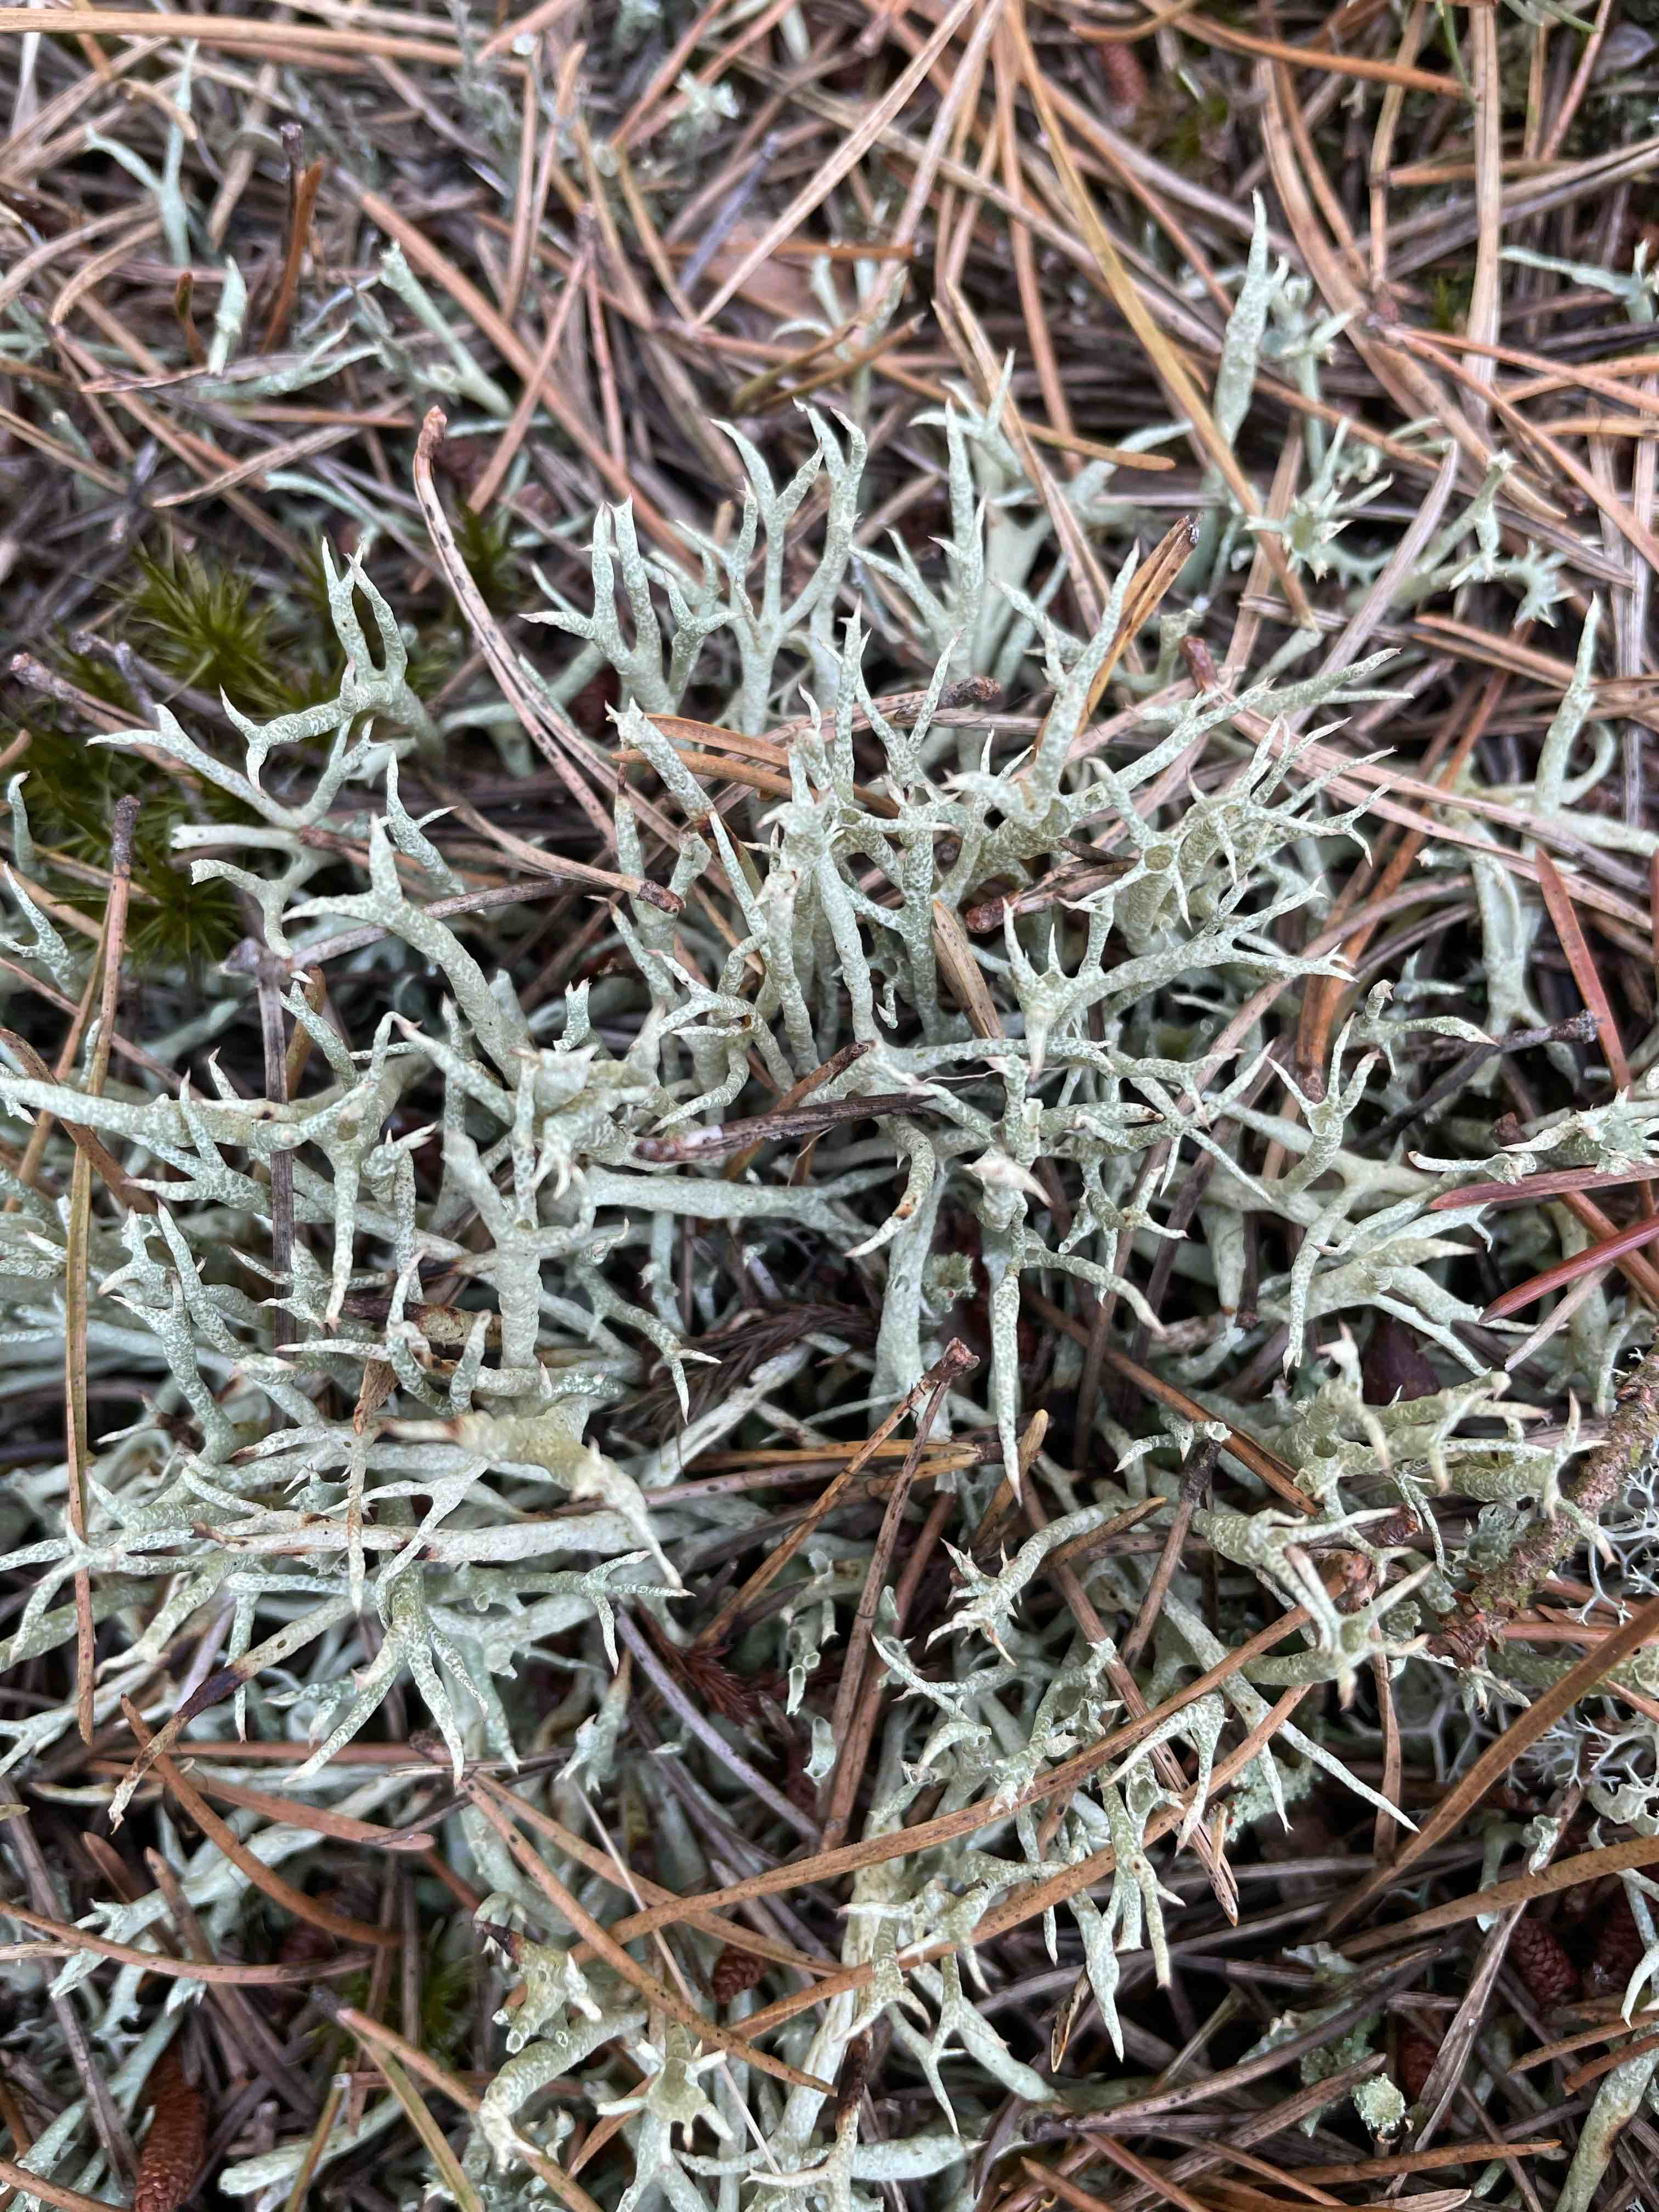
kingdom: Fungi
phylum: Ascomycota
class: Lecanoromycetes
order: Lecanorales
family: Cladoniaceae
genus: Cladonia
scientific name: Cladonia uncialis
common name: pigget bægerlav
